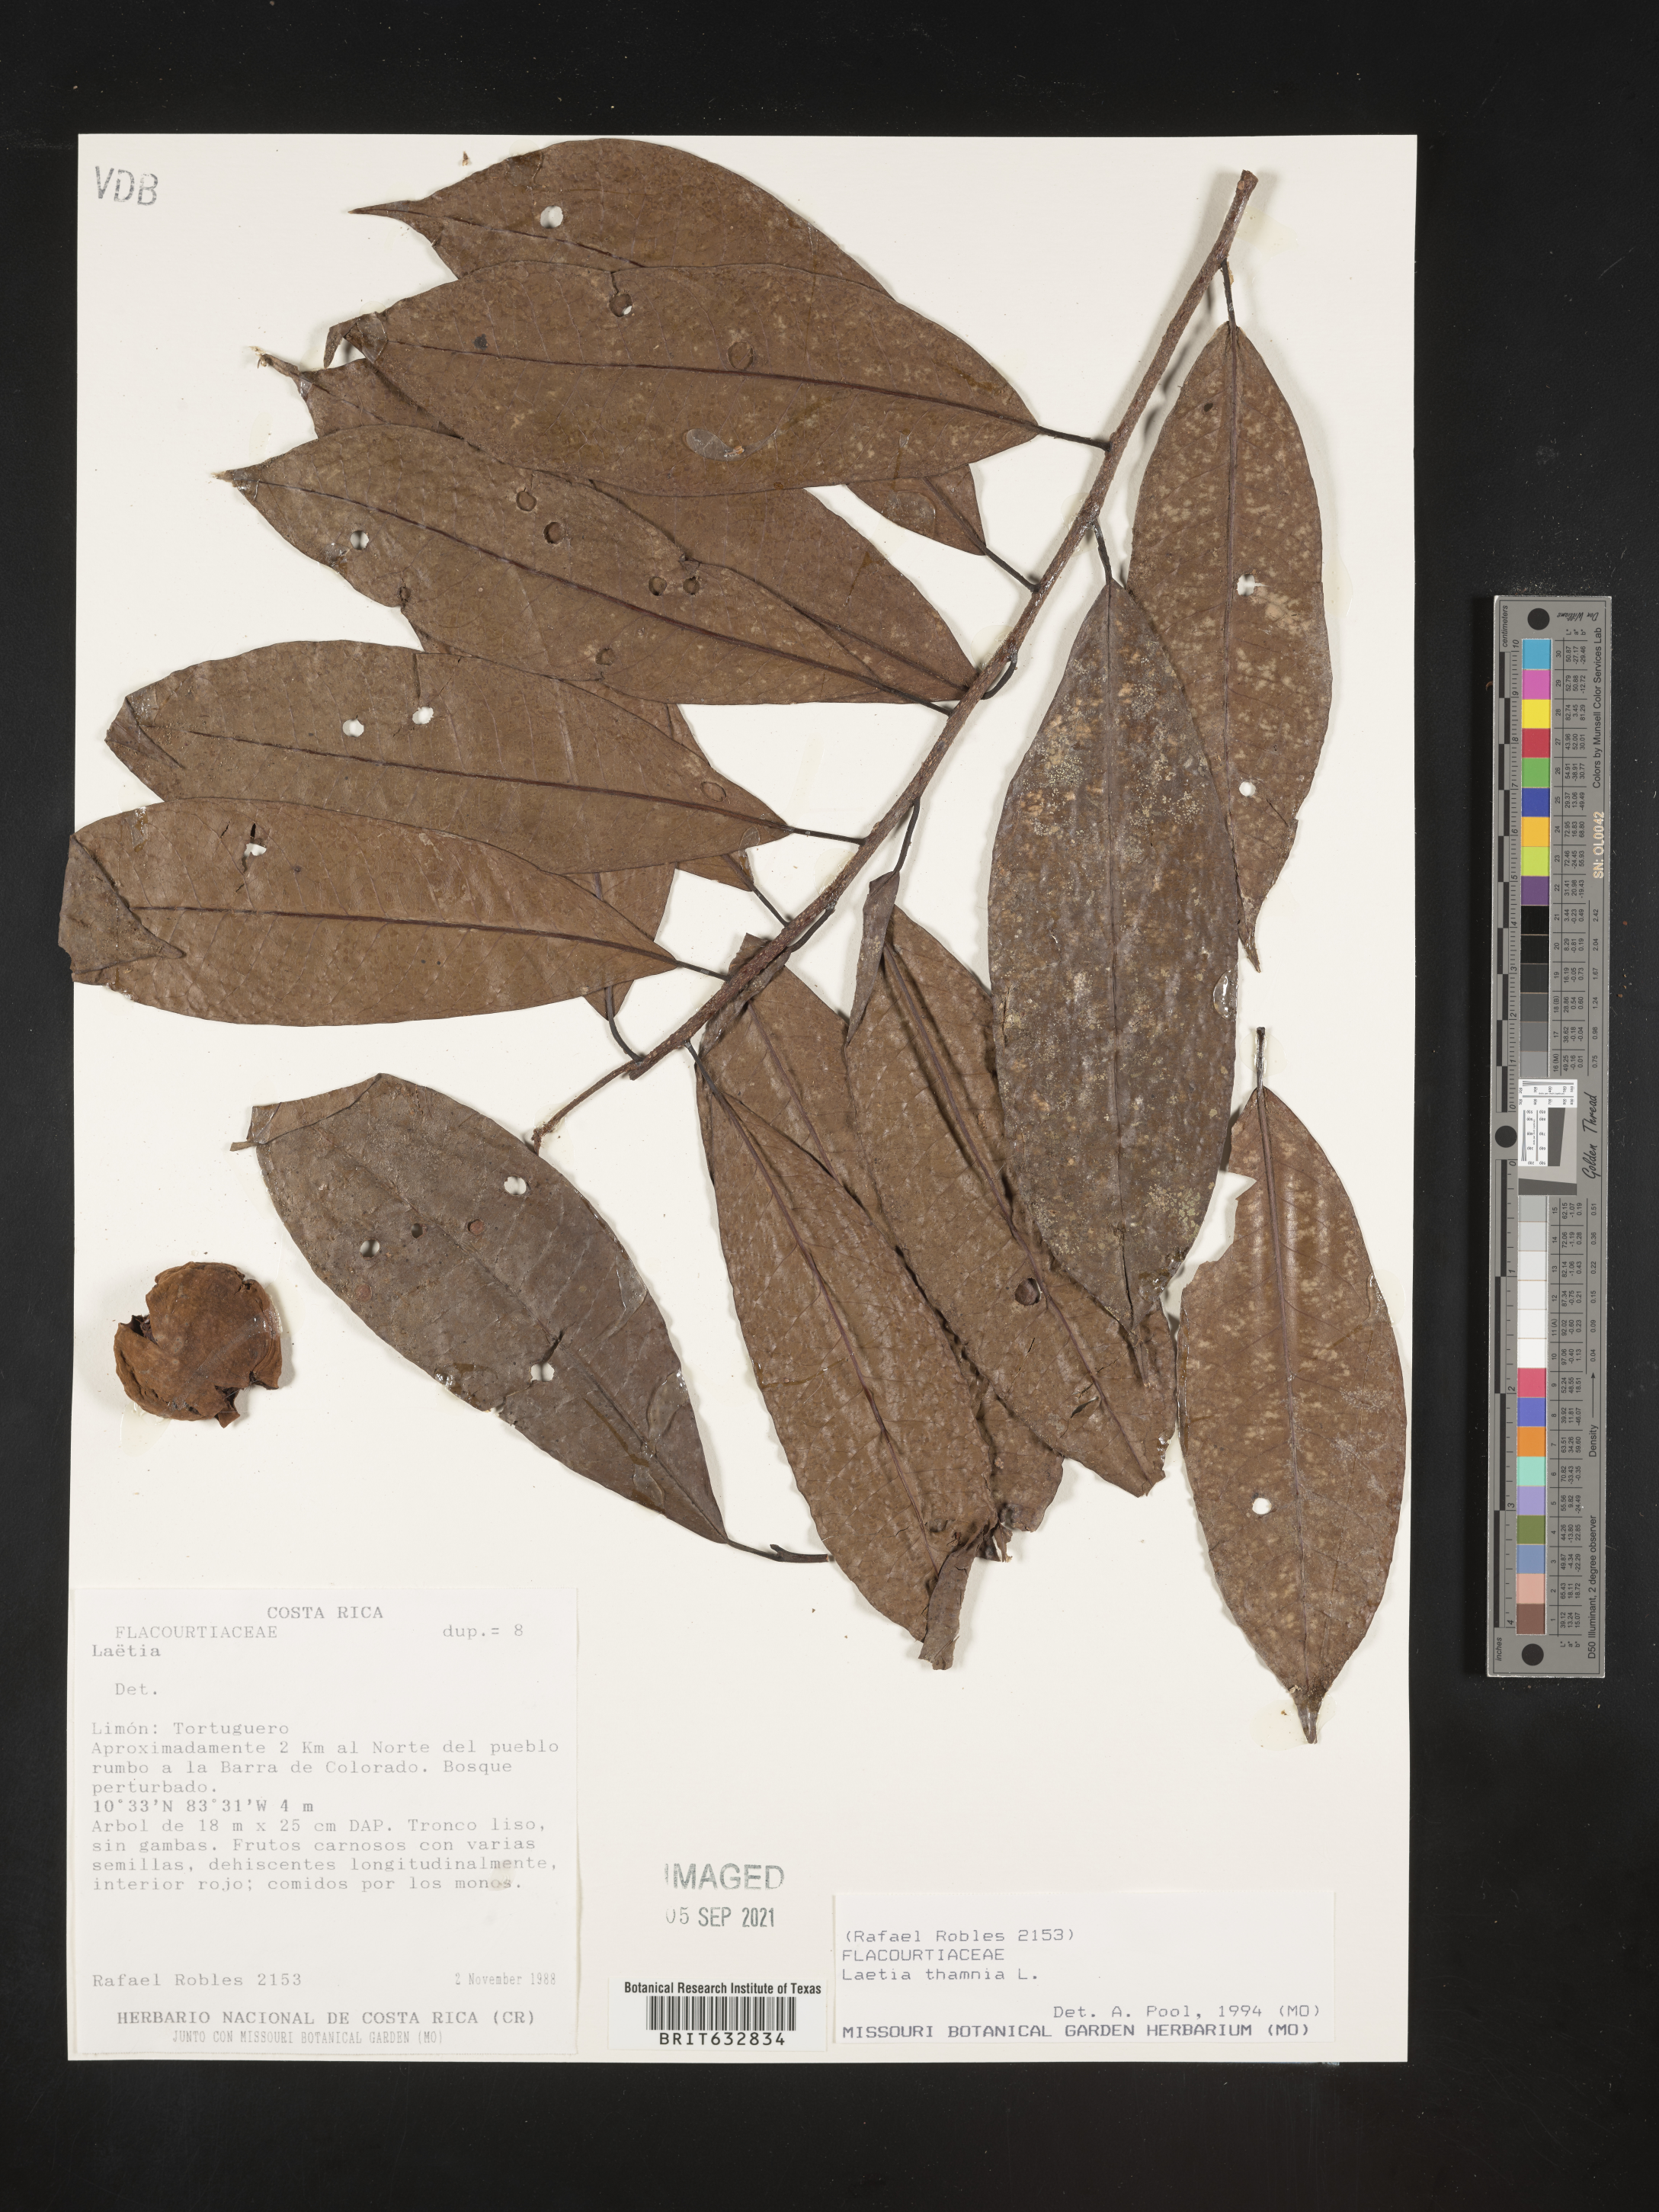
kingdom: Plantae
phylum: Tracheophyta
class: Magnoliopsida
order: Malpighiales
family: Flacourtiaceae
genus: Laetia
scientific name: Laetia
